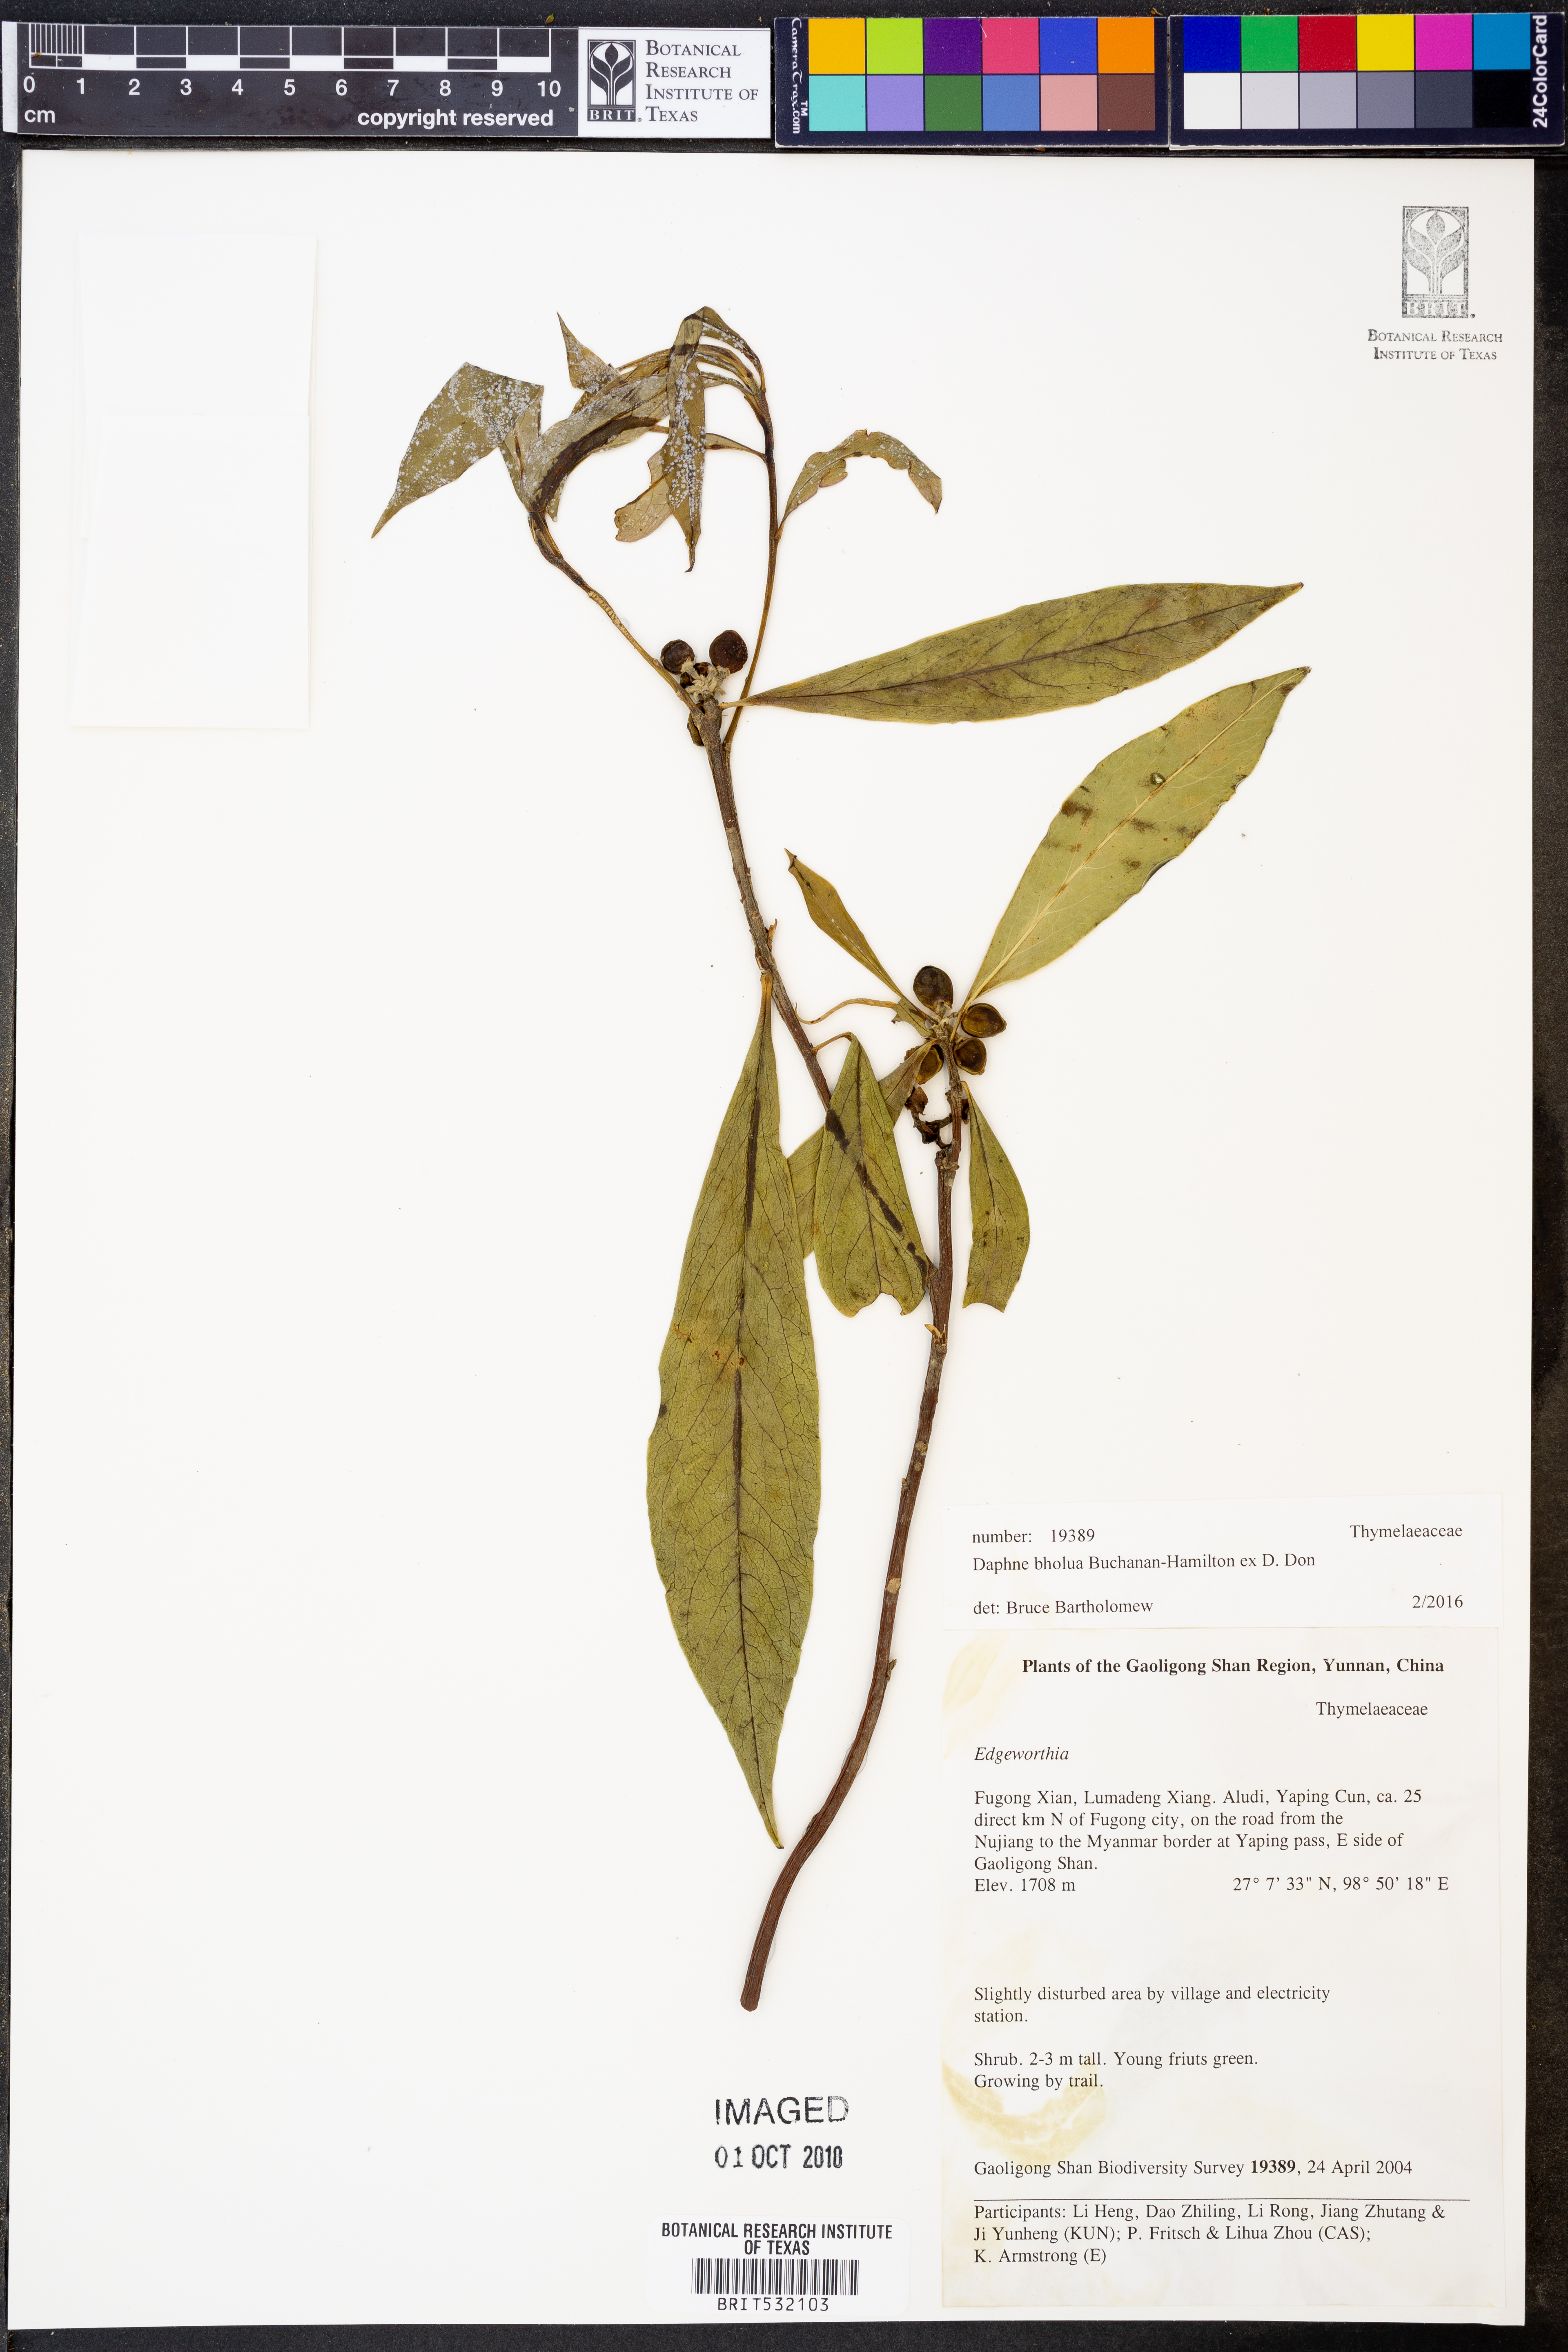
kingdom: Plantae
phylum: Tracheophyta
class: Magnoliopsida
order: Malvales
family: Thymelaeaceae
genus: Daphne
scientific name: Daphne bholua
